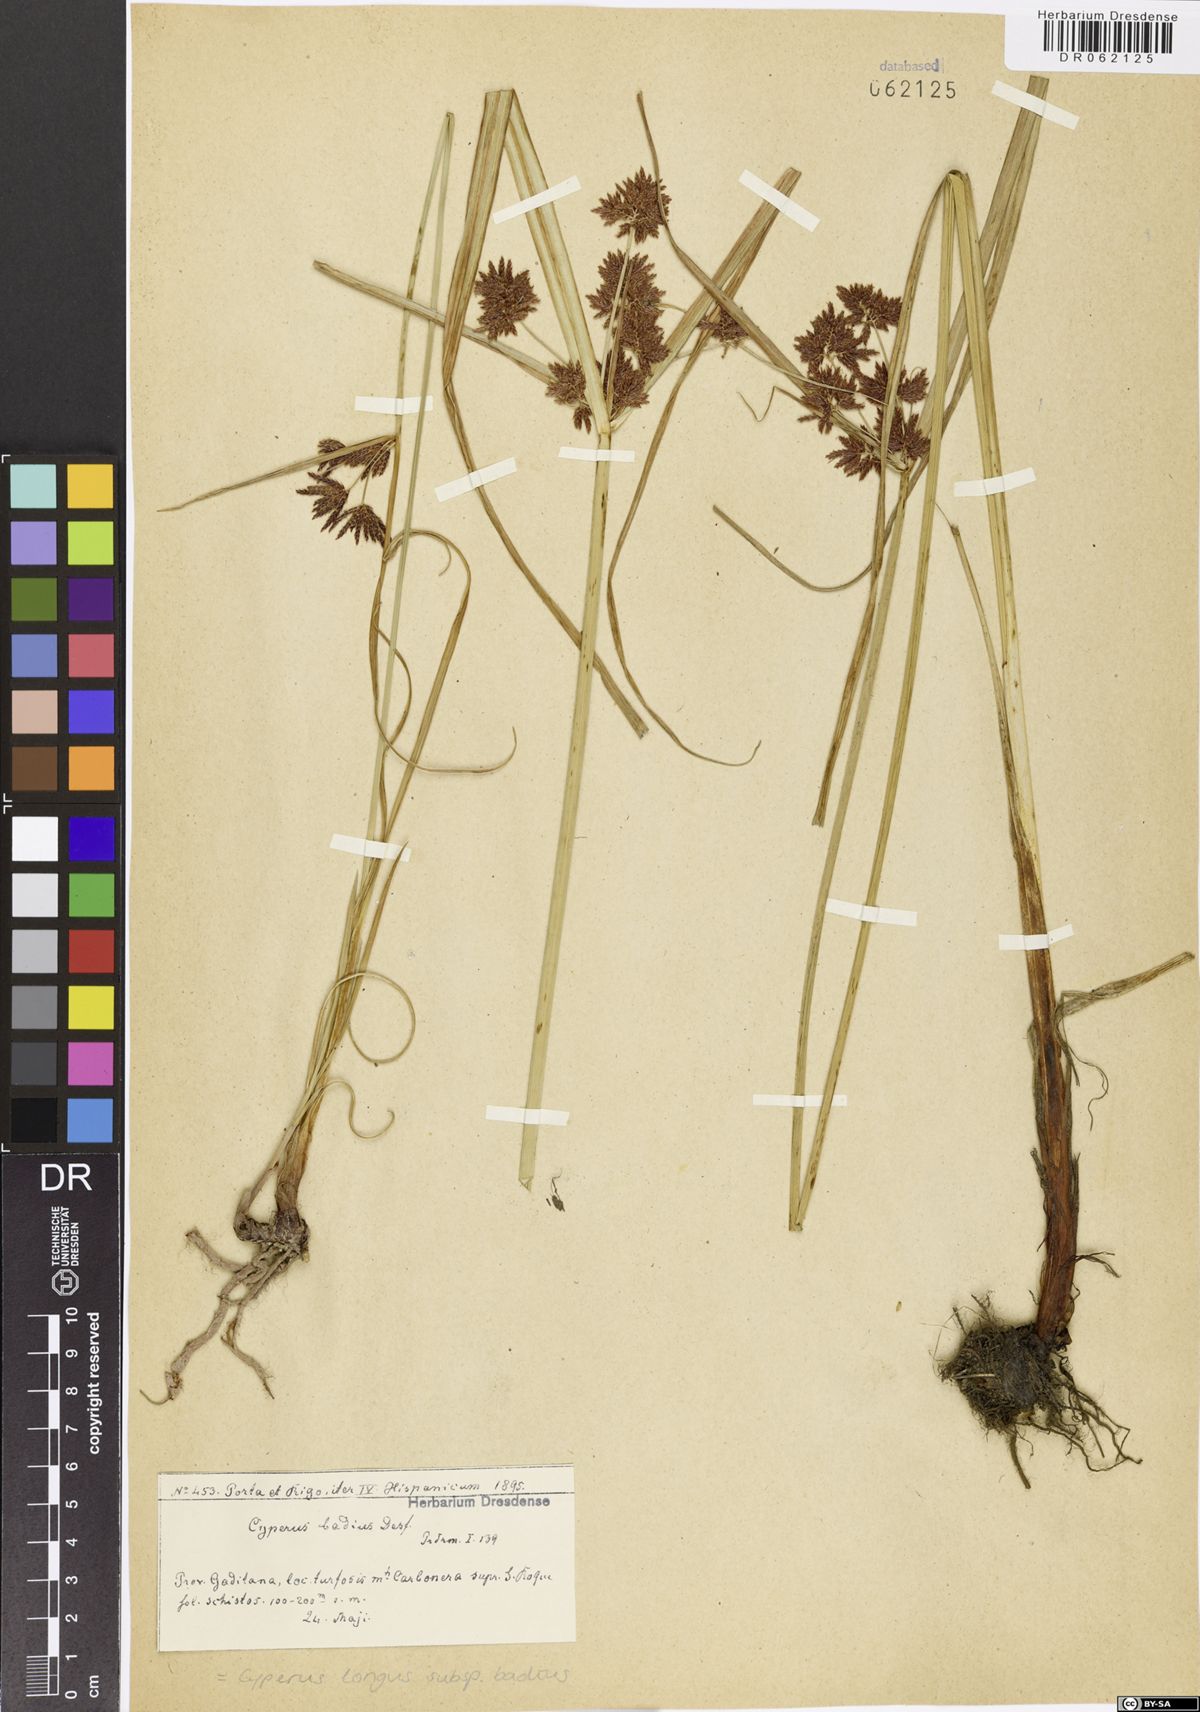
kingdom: Plantae
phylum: Tracheophyta
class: Liliopsida
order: Poales
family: Cyperaceae
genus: Cyperus
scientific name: Cyperus longus
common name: Galingale
